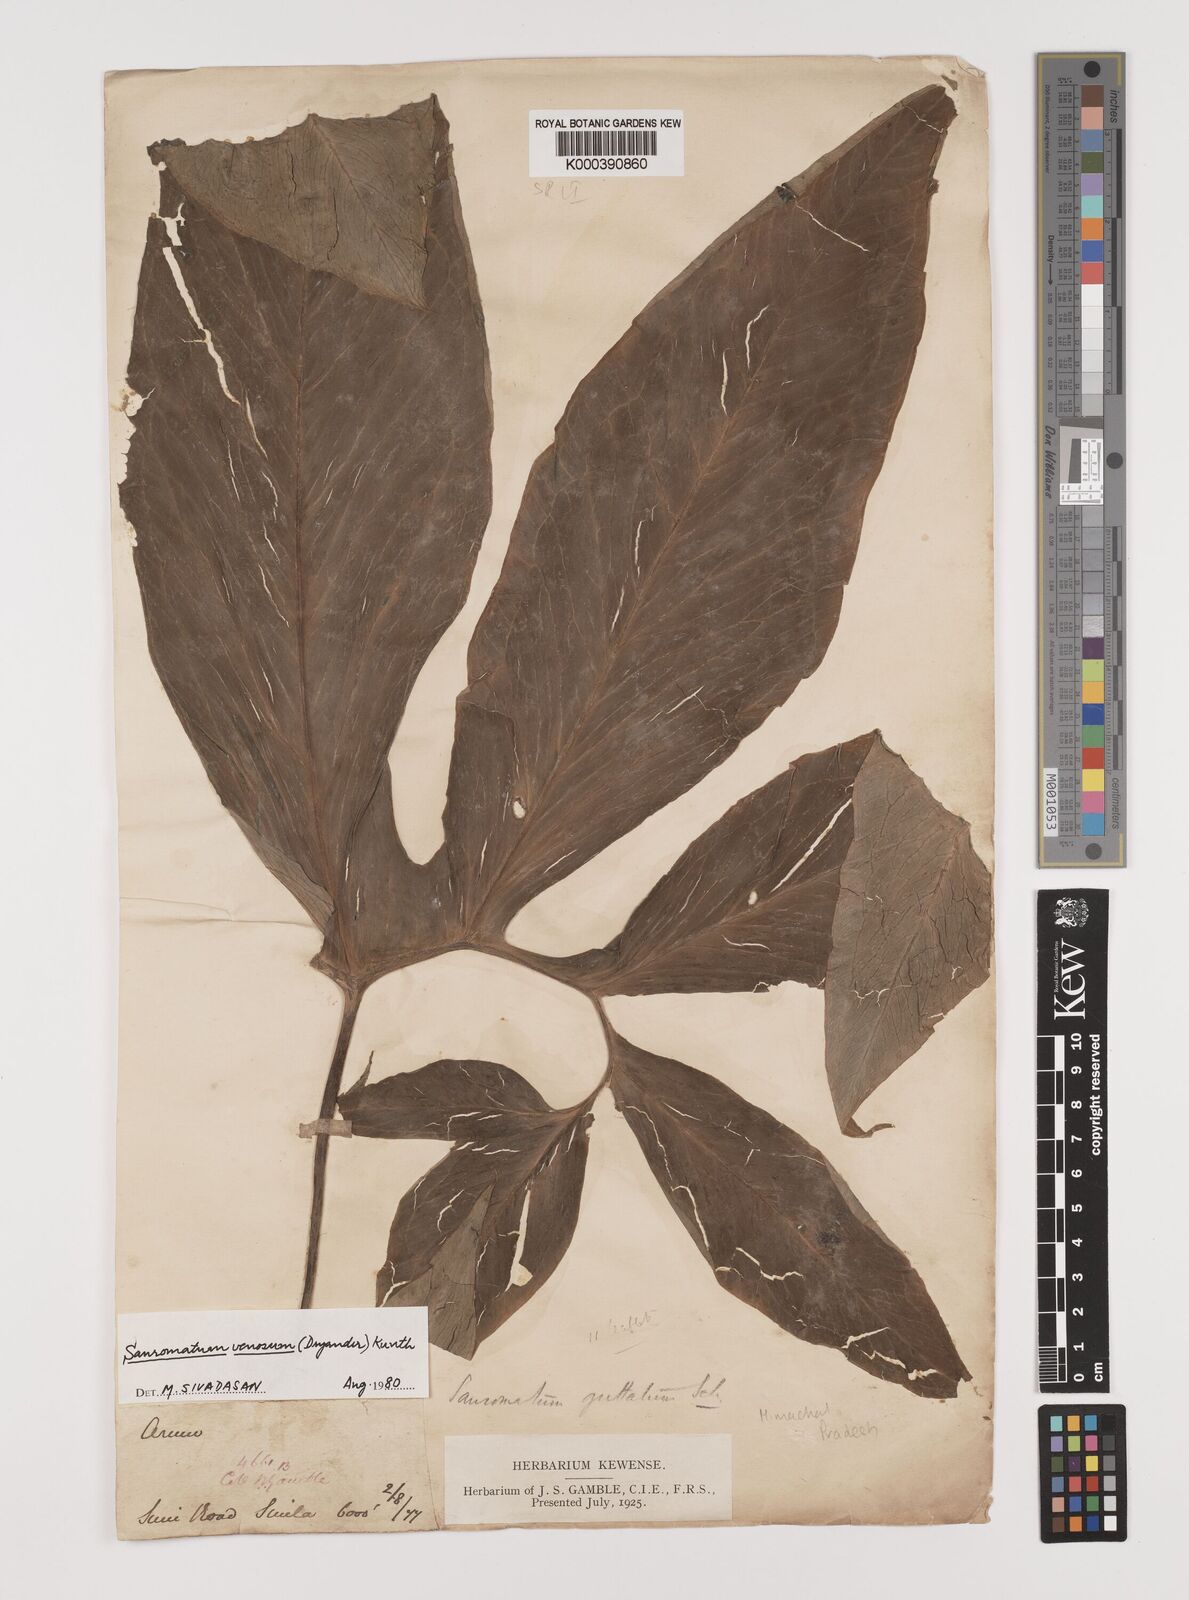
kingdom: Plantae
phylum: Tracheophyta
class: Liliopsida
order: Alismatales
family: Araceae
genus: Sauromatum
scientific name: Sauromatum venosum
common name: Voodoo lily
